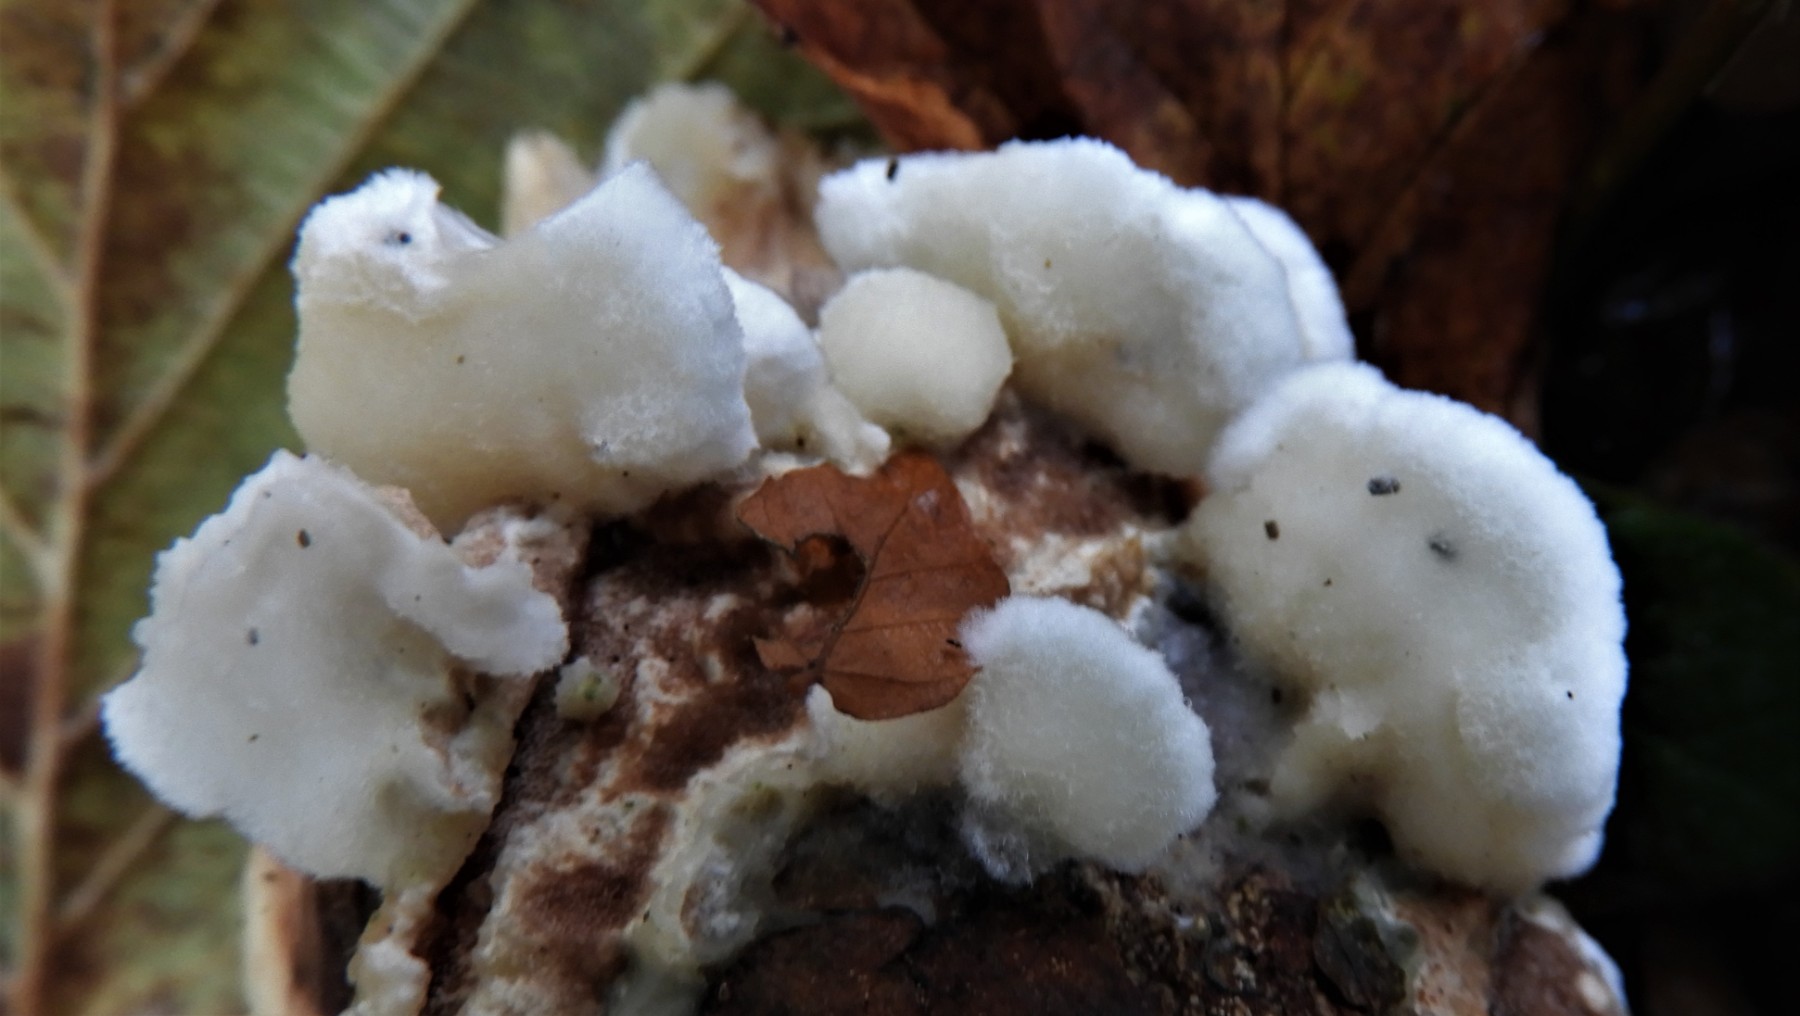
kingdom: Fungi
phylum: Basidiomycota
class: Agaricomycetes
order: Polyporales
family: Meruliaceae
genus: Phlebia
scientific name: Phlebia tremellosa
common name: bævrende åresvamp
